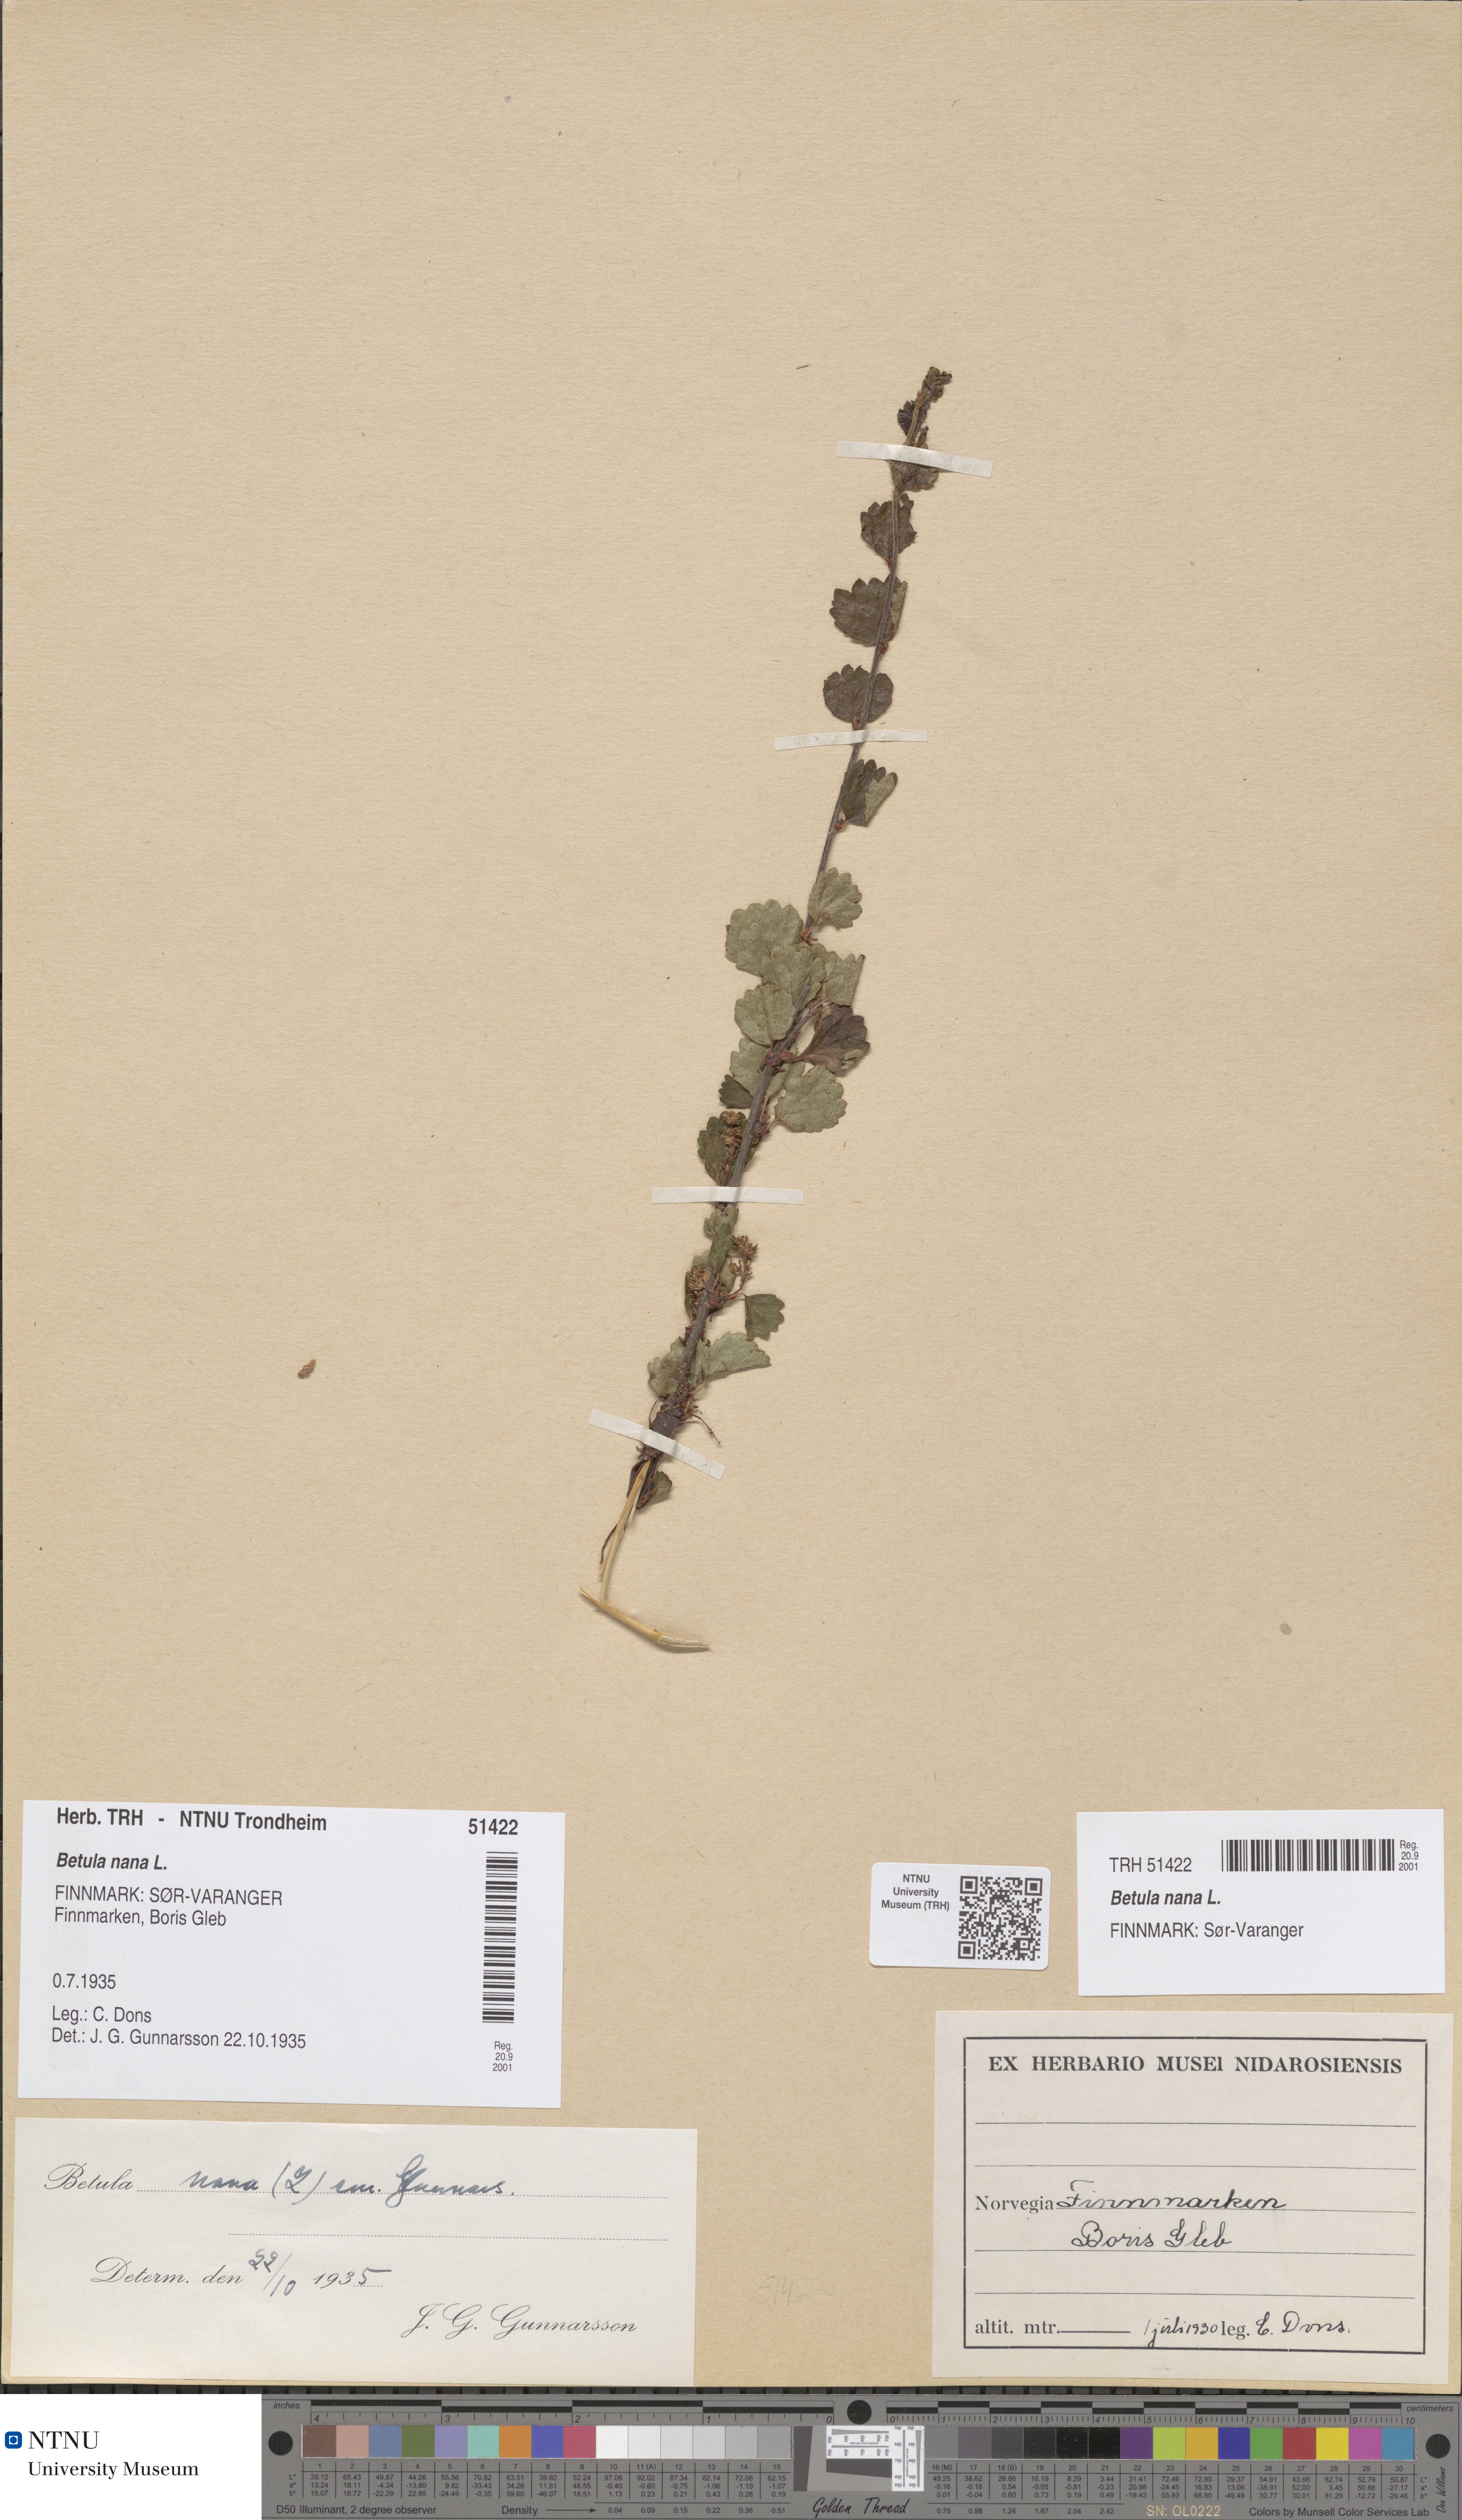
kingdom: Plantae
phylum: Tracheophyta
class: Magnoliopsida
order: Fagales
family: Betulaceae
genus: Betula
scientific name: Betula nana
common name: Arctic dwarf birch
